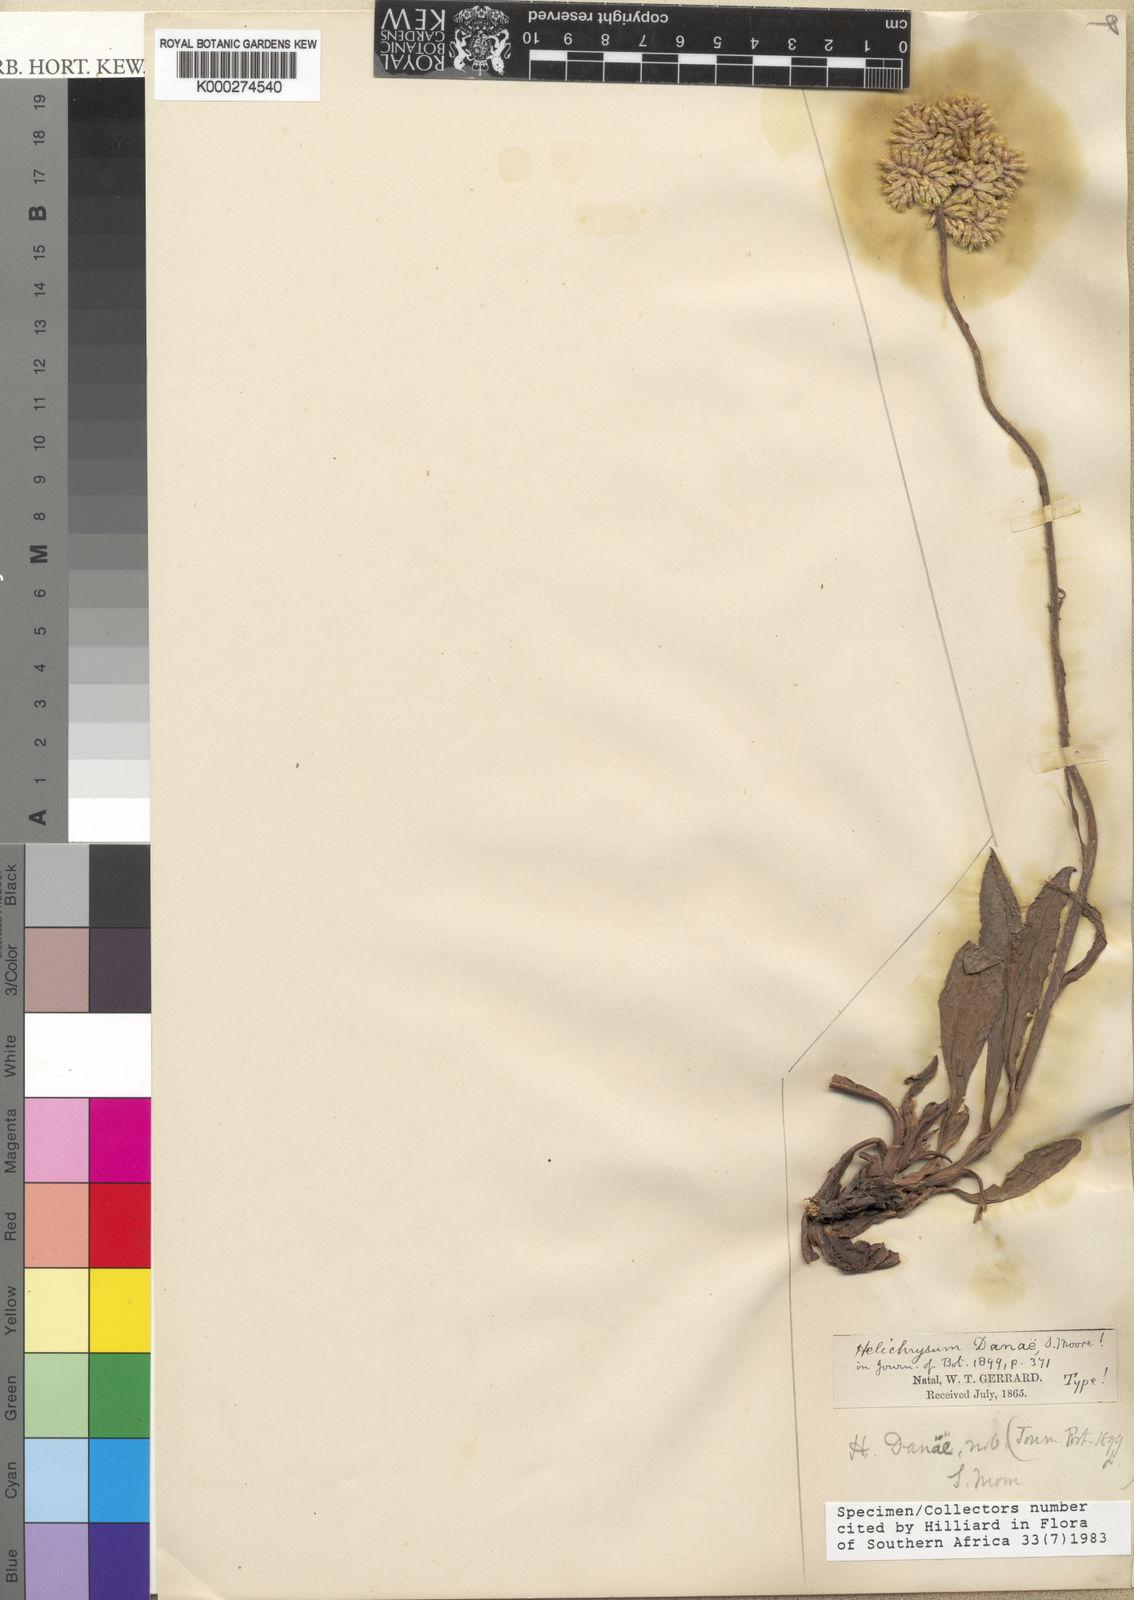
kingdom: Plantae
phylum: Tracheophyta
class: Magnoliopsida
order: Asterales
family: Asteraceae
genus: Helichrysum
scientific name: Helichrysum acutatum
